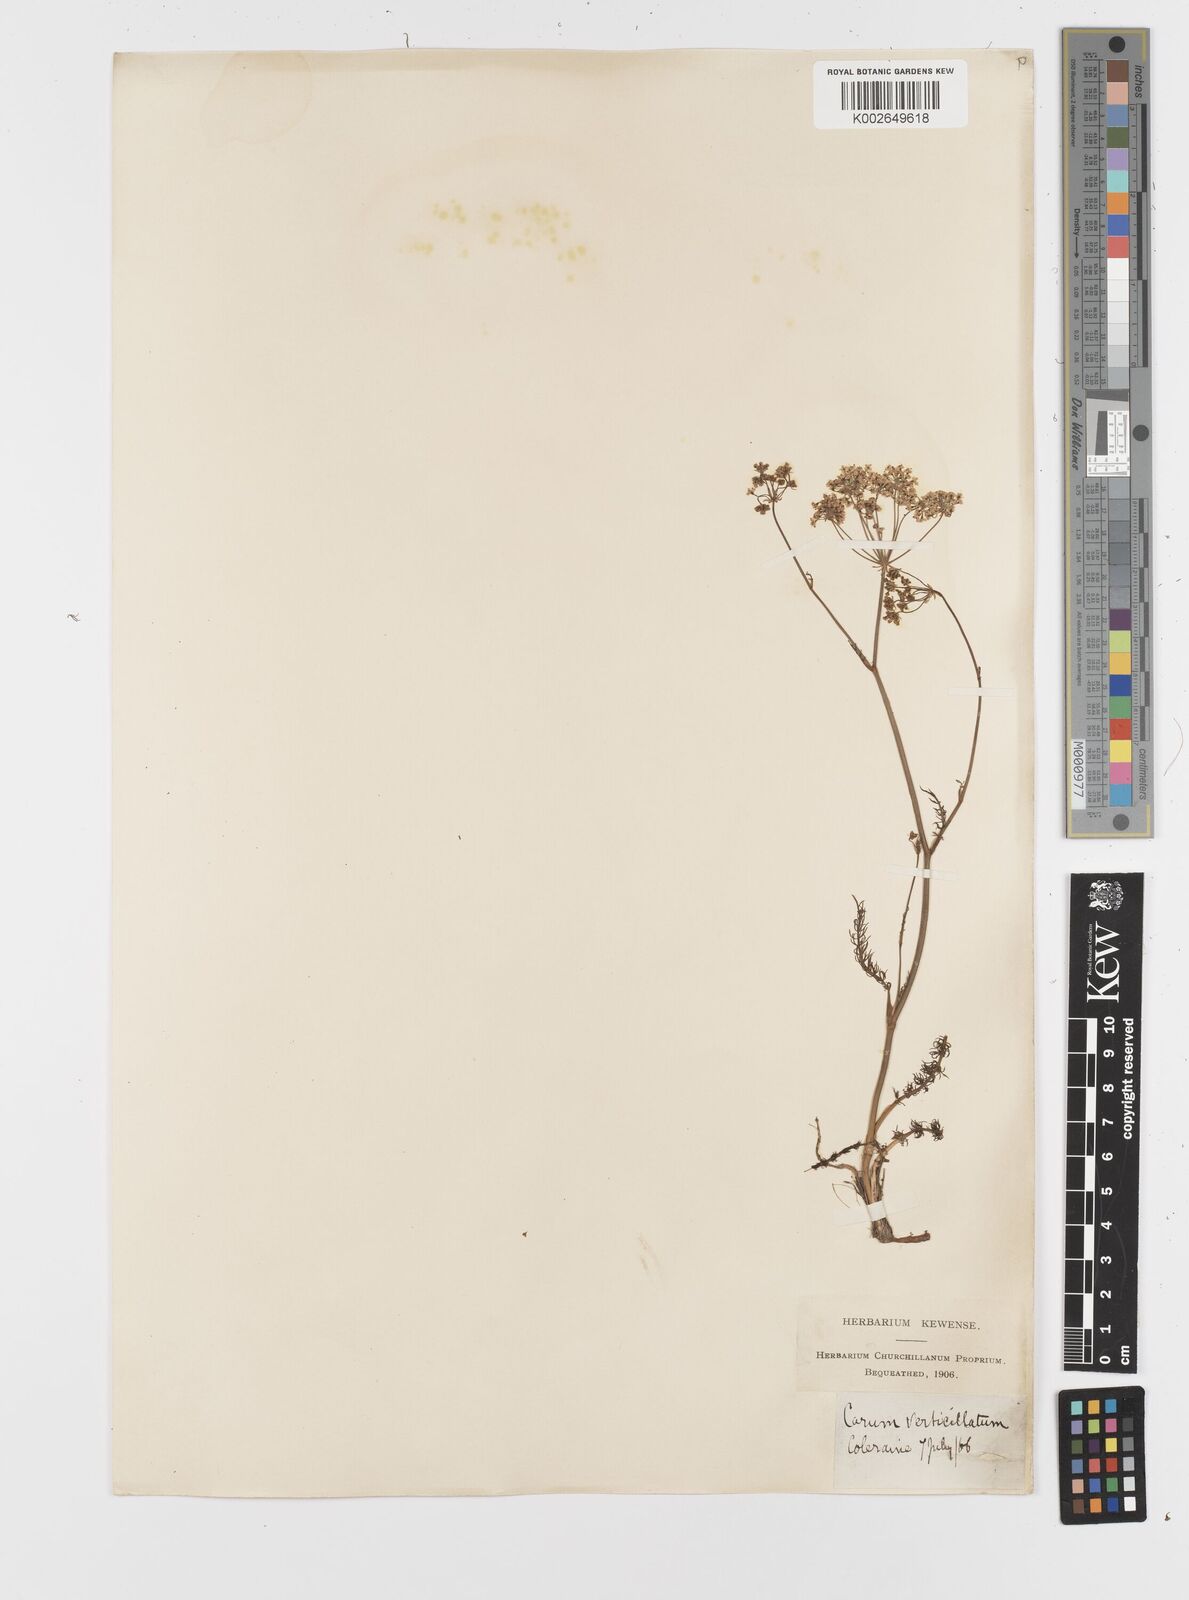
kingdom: Plantae
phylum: Tracheophyta
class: Magnoliopsida
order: Apiales
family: Apiaceae
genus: Trocdaris
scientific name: Trocdaris verticillatum
